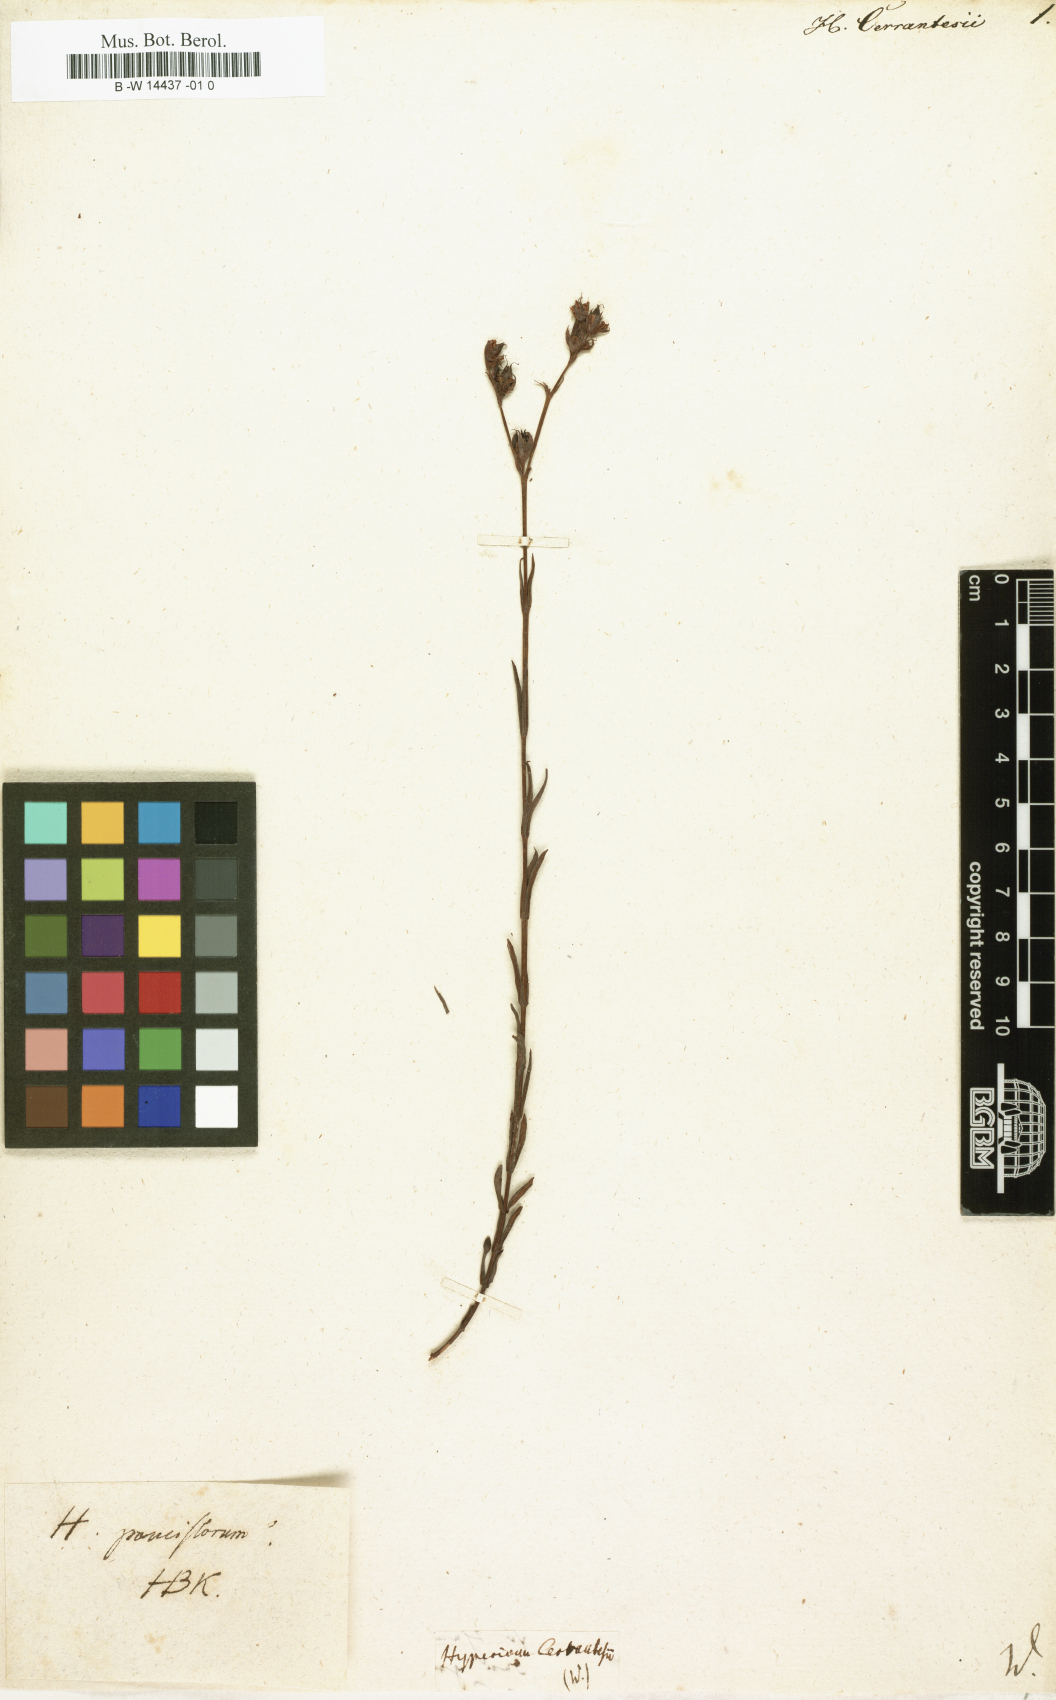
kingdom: Plantae
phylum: Tracheophyta
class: Magnoliopsida
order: Malpighiales
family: Hypericaceae
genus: Hypericum
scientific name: Hypericum pauciflorum
